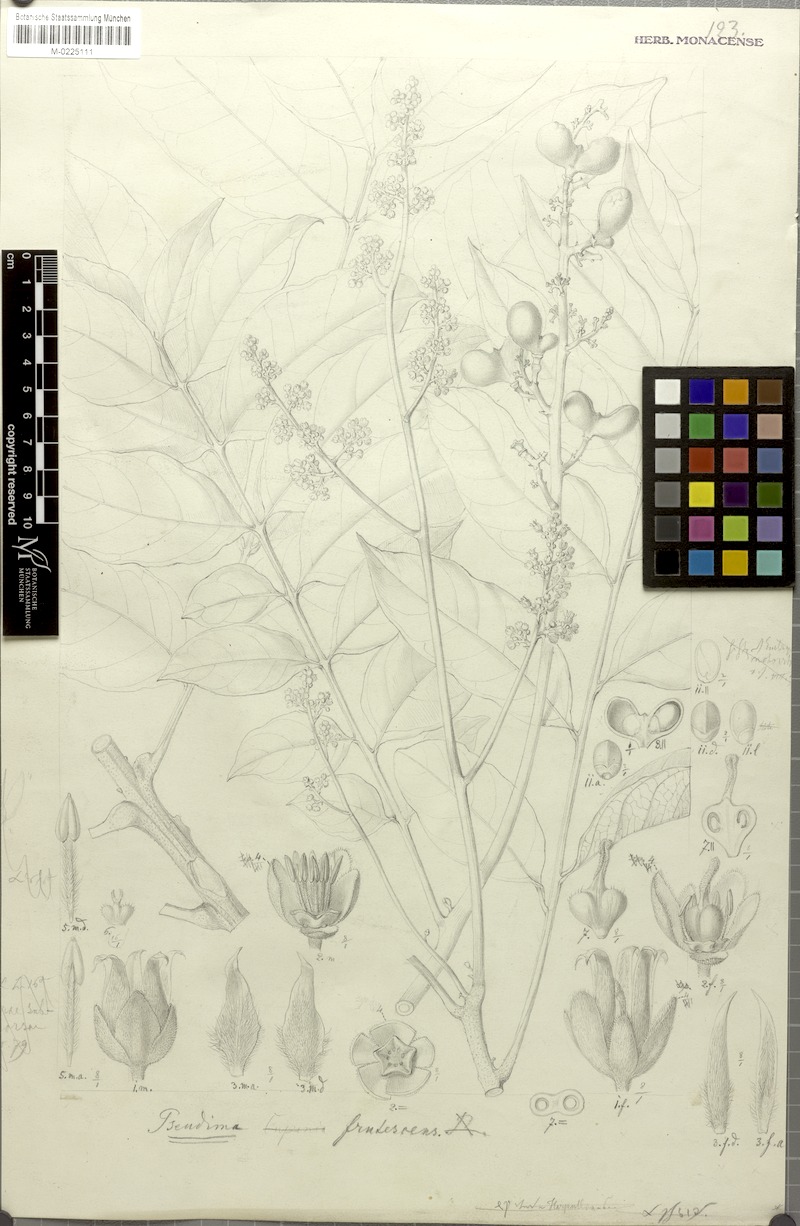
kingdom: Plantae
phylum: Tracheophyta
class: Magnoliopsida
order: Sapindales
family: Sapindaceae
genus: Pseudima
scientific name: Pseudima frutescens
